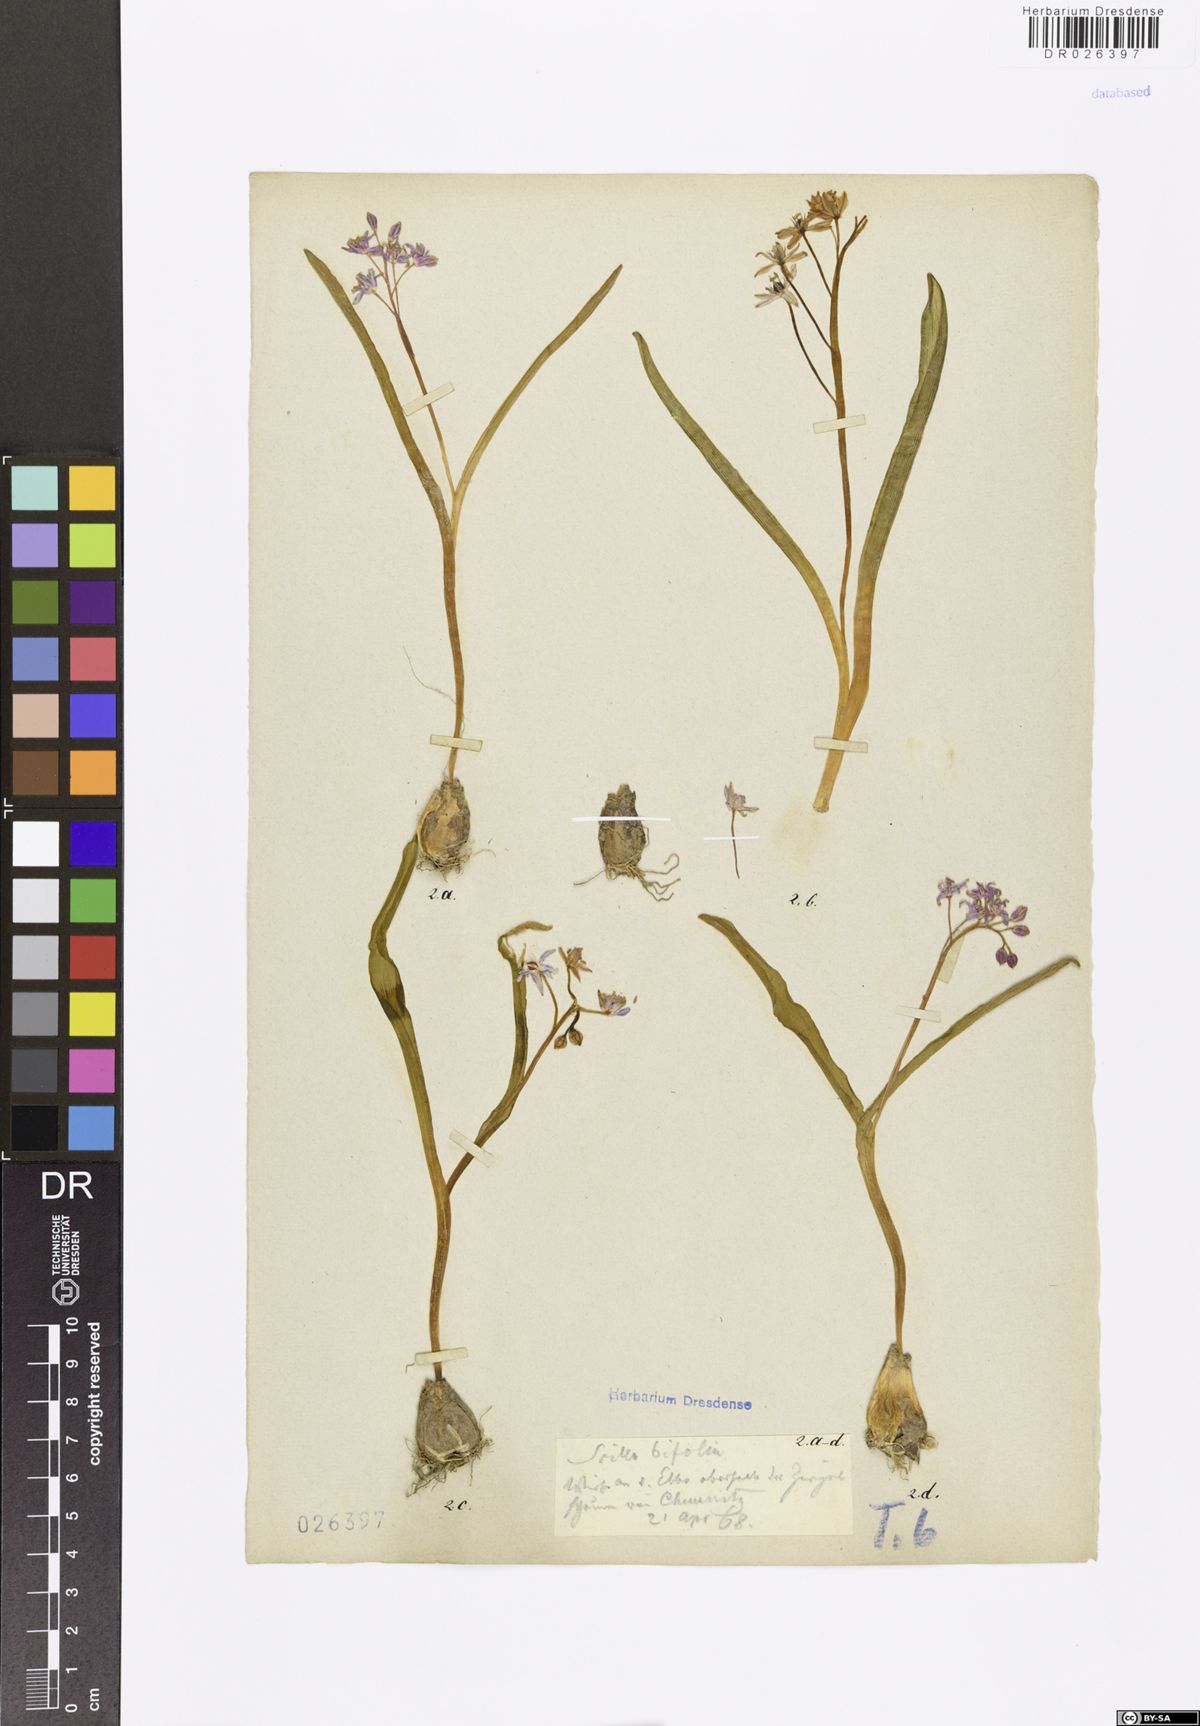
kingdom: Plantae
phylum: Tracheophyta
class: Liliopsida
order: Asparagales
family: Asparagaceae
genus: Scilla
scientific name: Scilla vindobonensis
